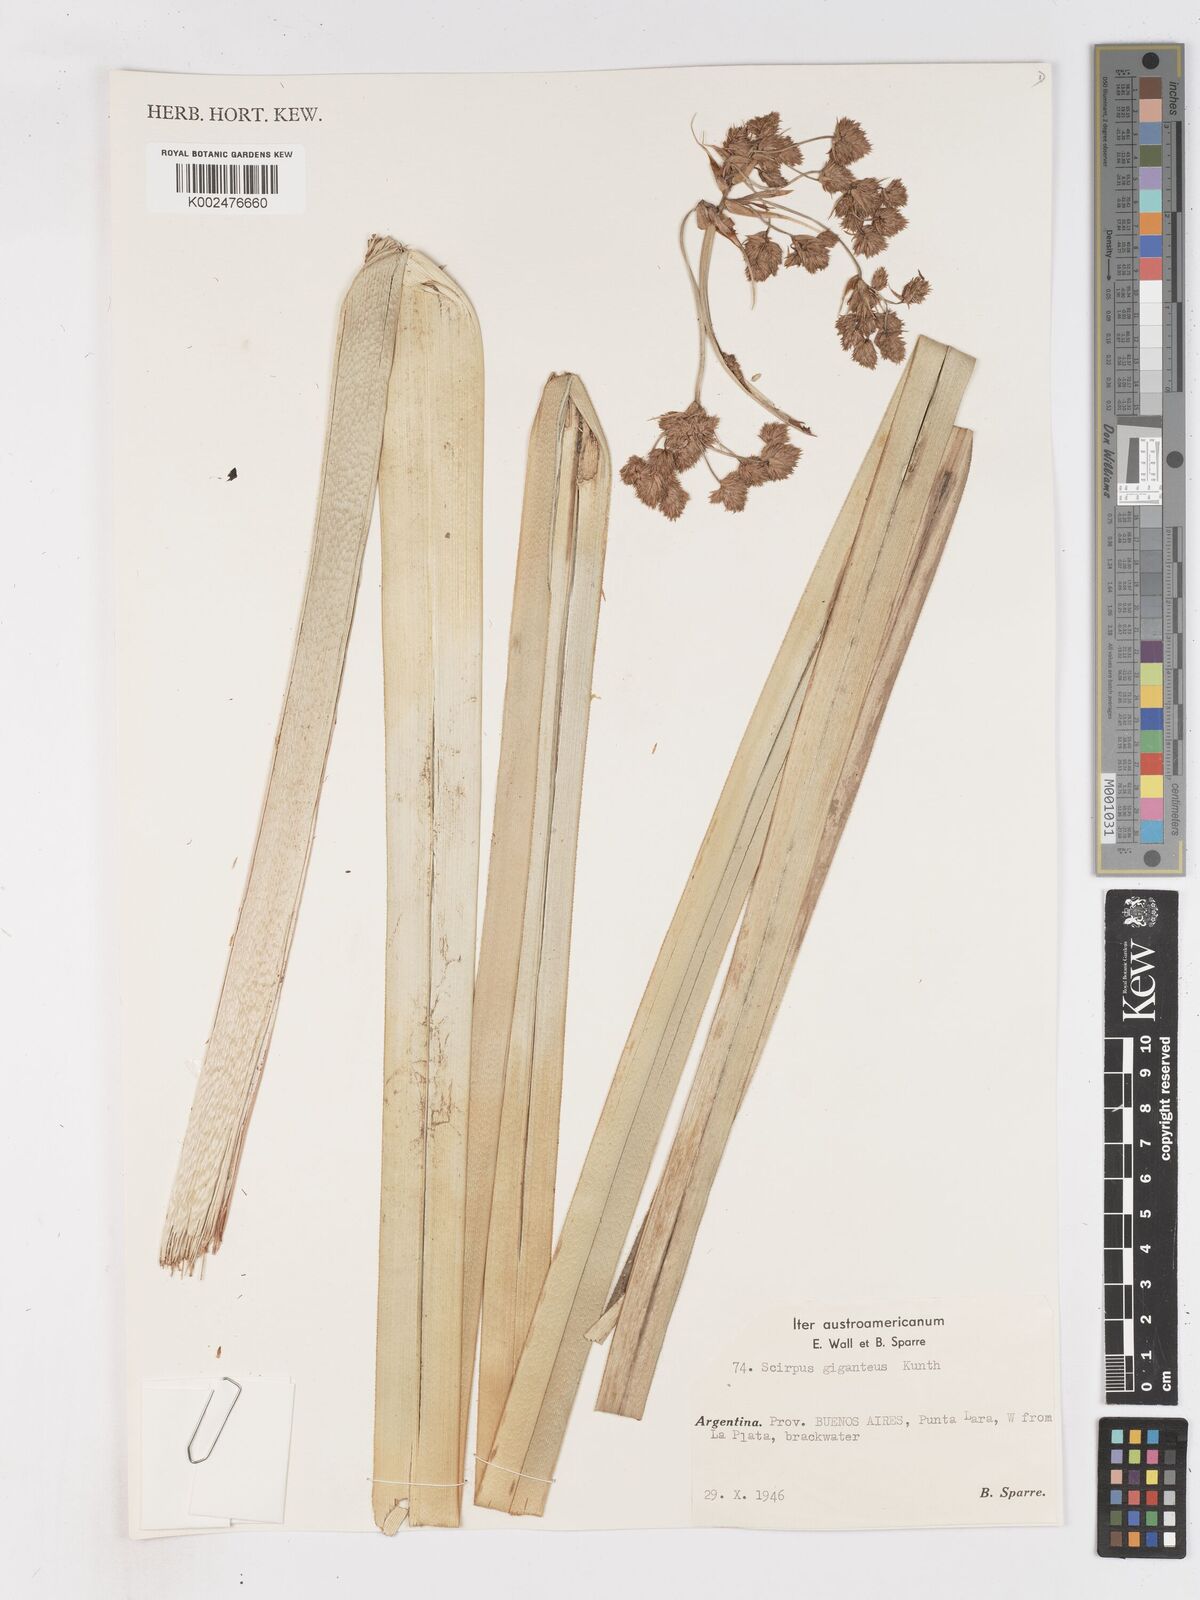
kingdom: Plantae
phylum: Tracheophyta
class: Liliopsida
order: Poales
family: Cyperaceae
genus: Cyperus
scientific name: Cyperus byssaceus
